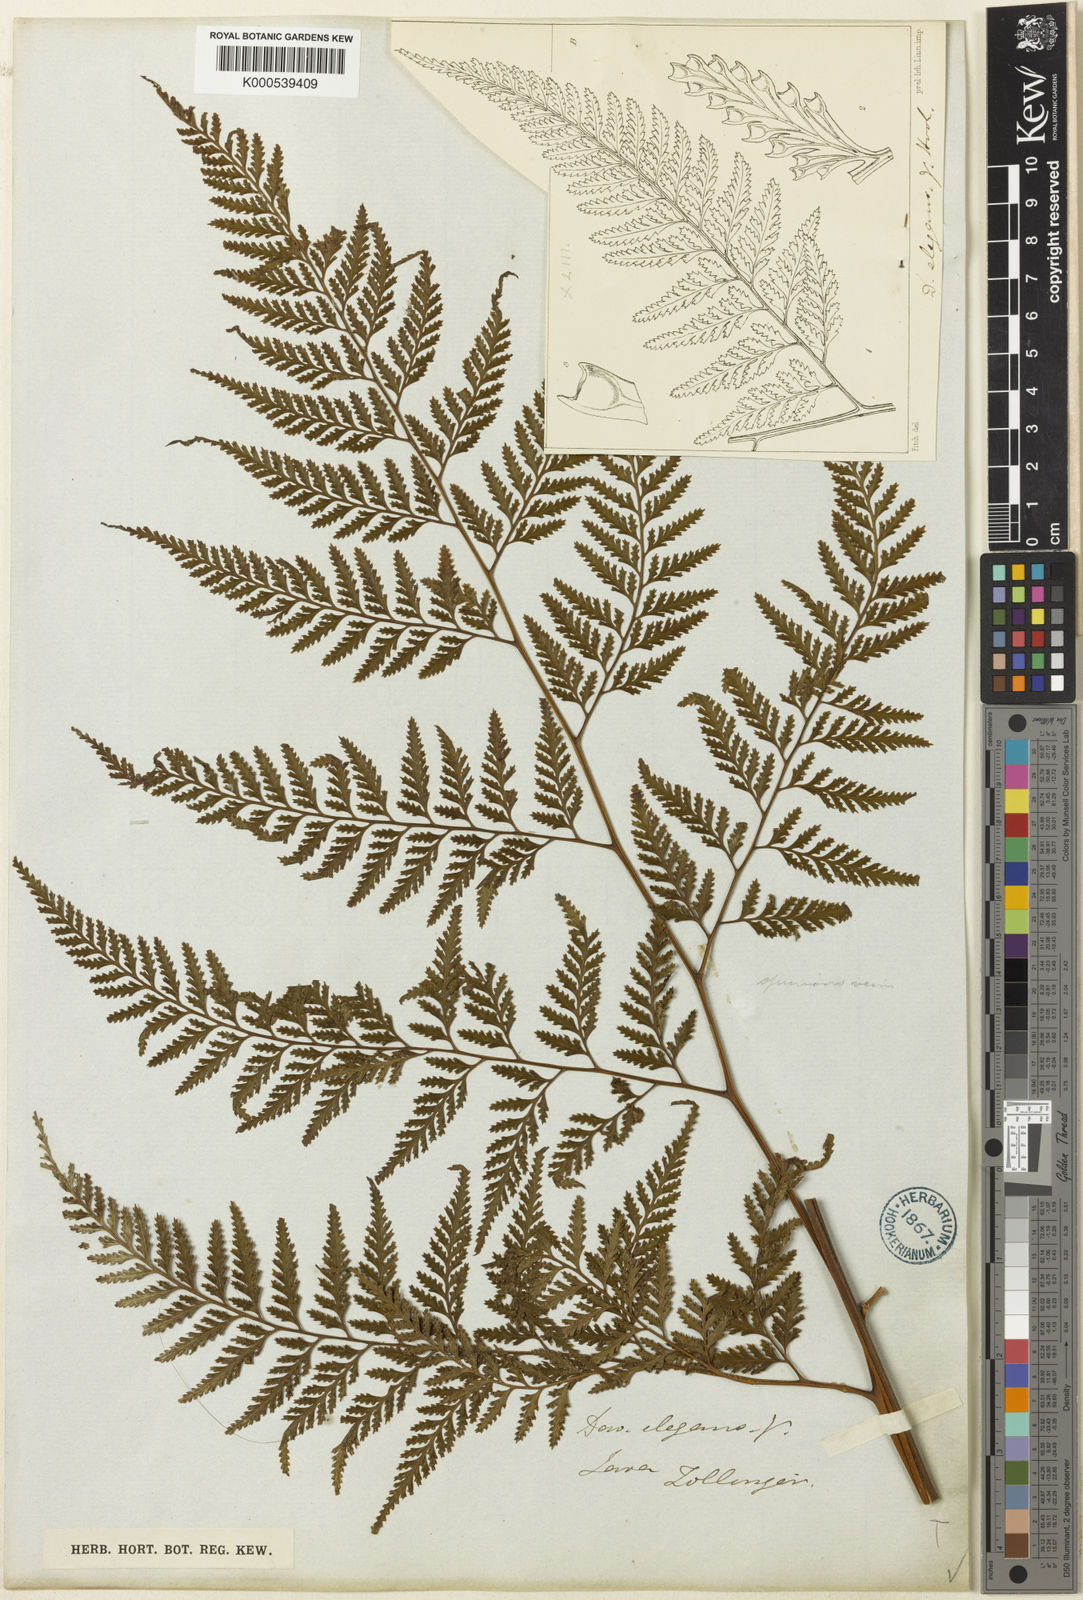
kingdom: Plantae
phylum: Tracheophyta
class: Polypodiopsida
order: Polypodiales
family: Davalliaceae
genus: Davallia
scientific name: Davallia denticulata
